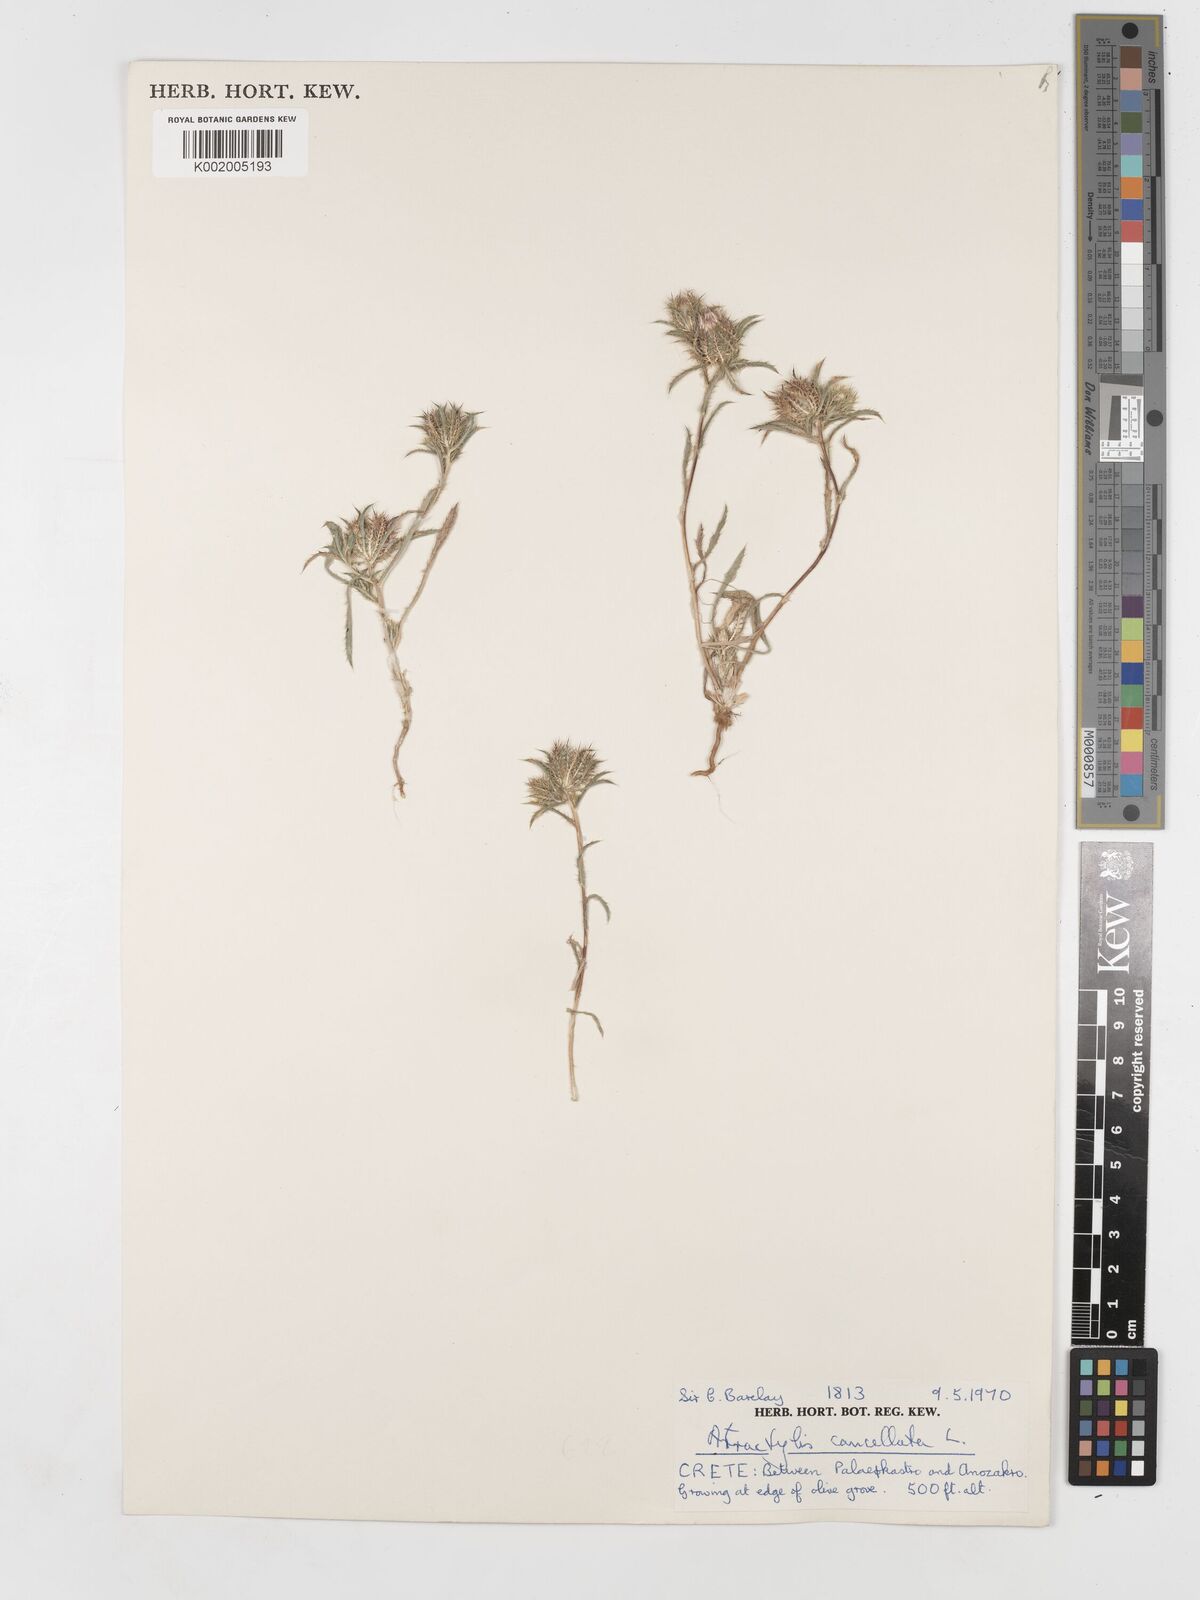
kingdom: Plantae
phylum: Tracheophyta
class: Magnoliopsida
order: Asterales
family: Asteraceae
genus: Atractylis
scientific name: Atractylis cancellata
